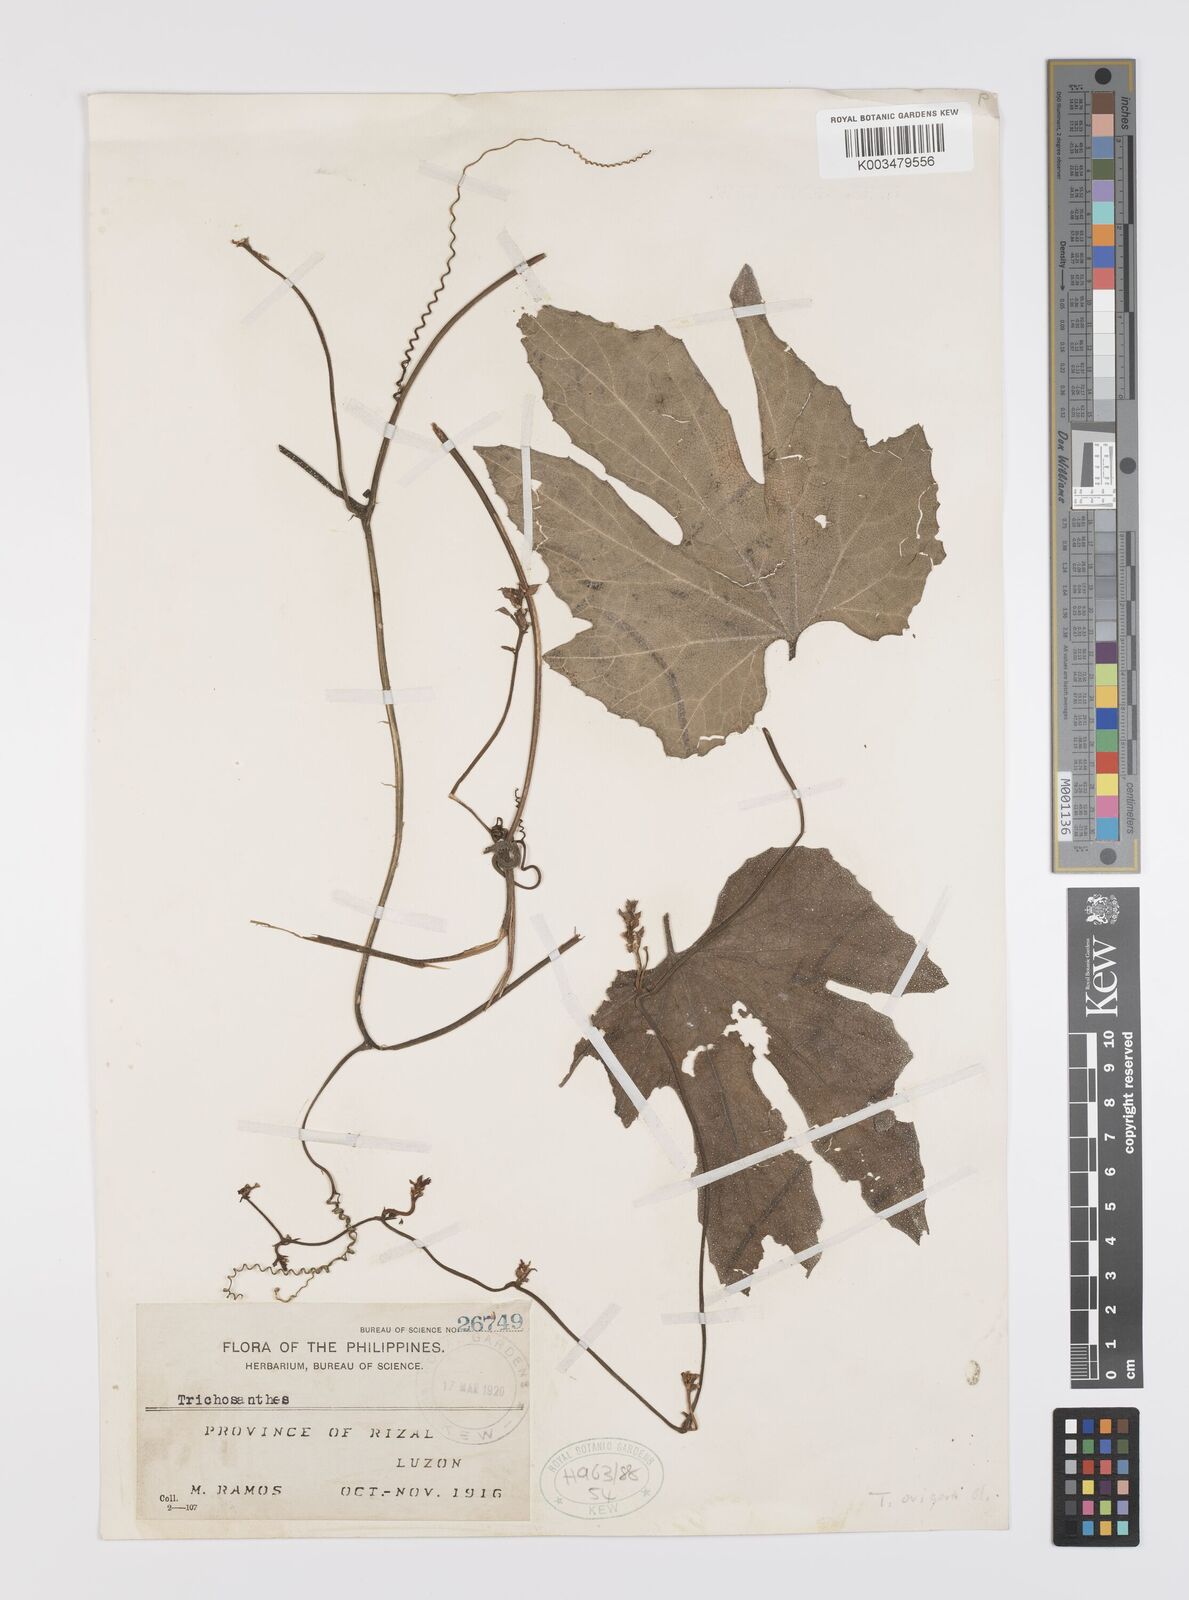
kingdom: Plantae
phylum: Tracheophyta
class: Magnoliopsida
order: Cucurbitales
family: Cucurbitaceae
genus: Trichosanthes
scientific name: Trichosanthes ovigera
